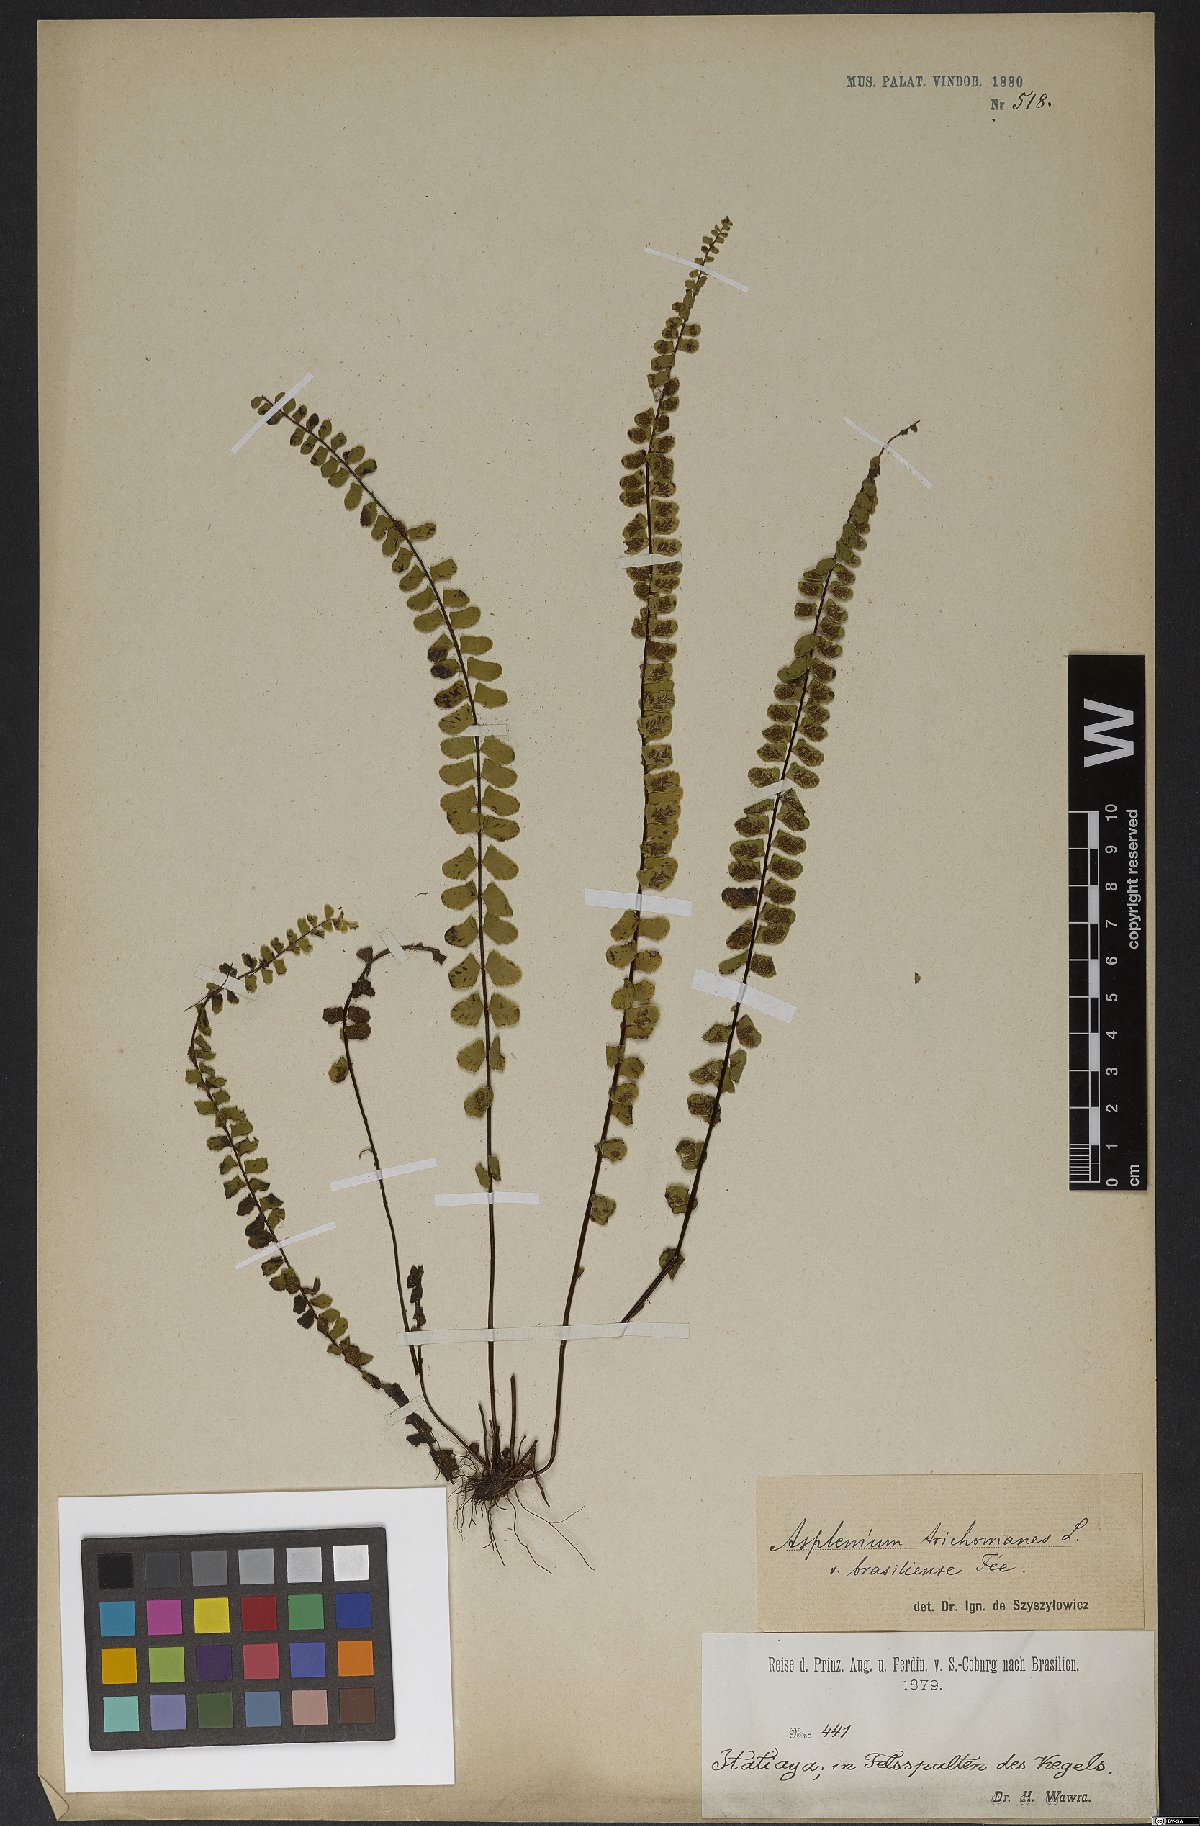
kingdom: Plantae
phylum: Tracheophyta
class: Polypodiopsida
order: Polypodiales
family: Aspleniaceae
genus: Asplenium
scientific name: Asplenium trichomanes
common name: Maidenhair spleenwort
